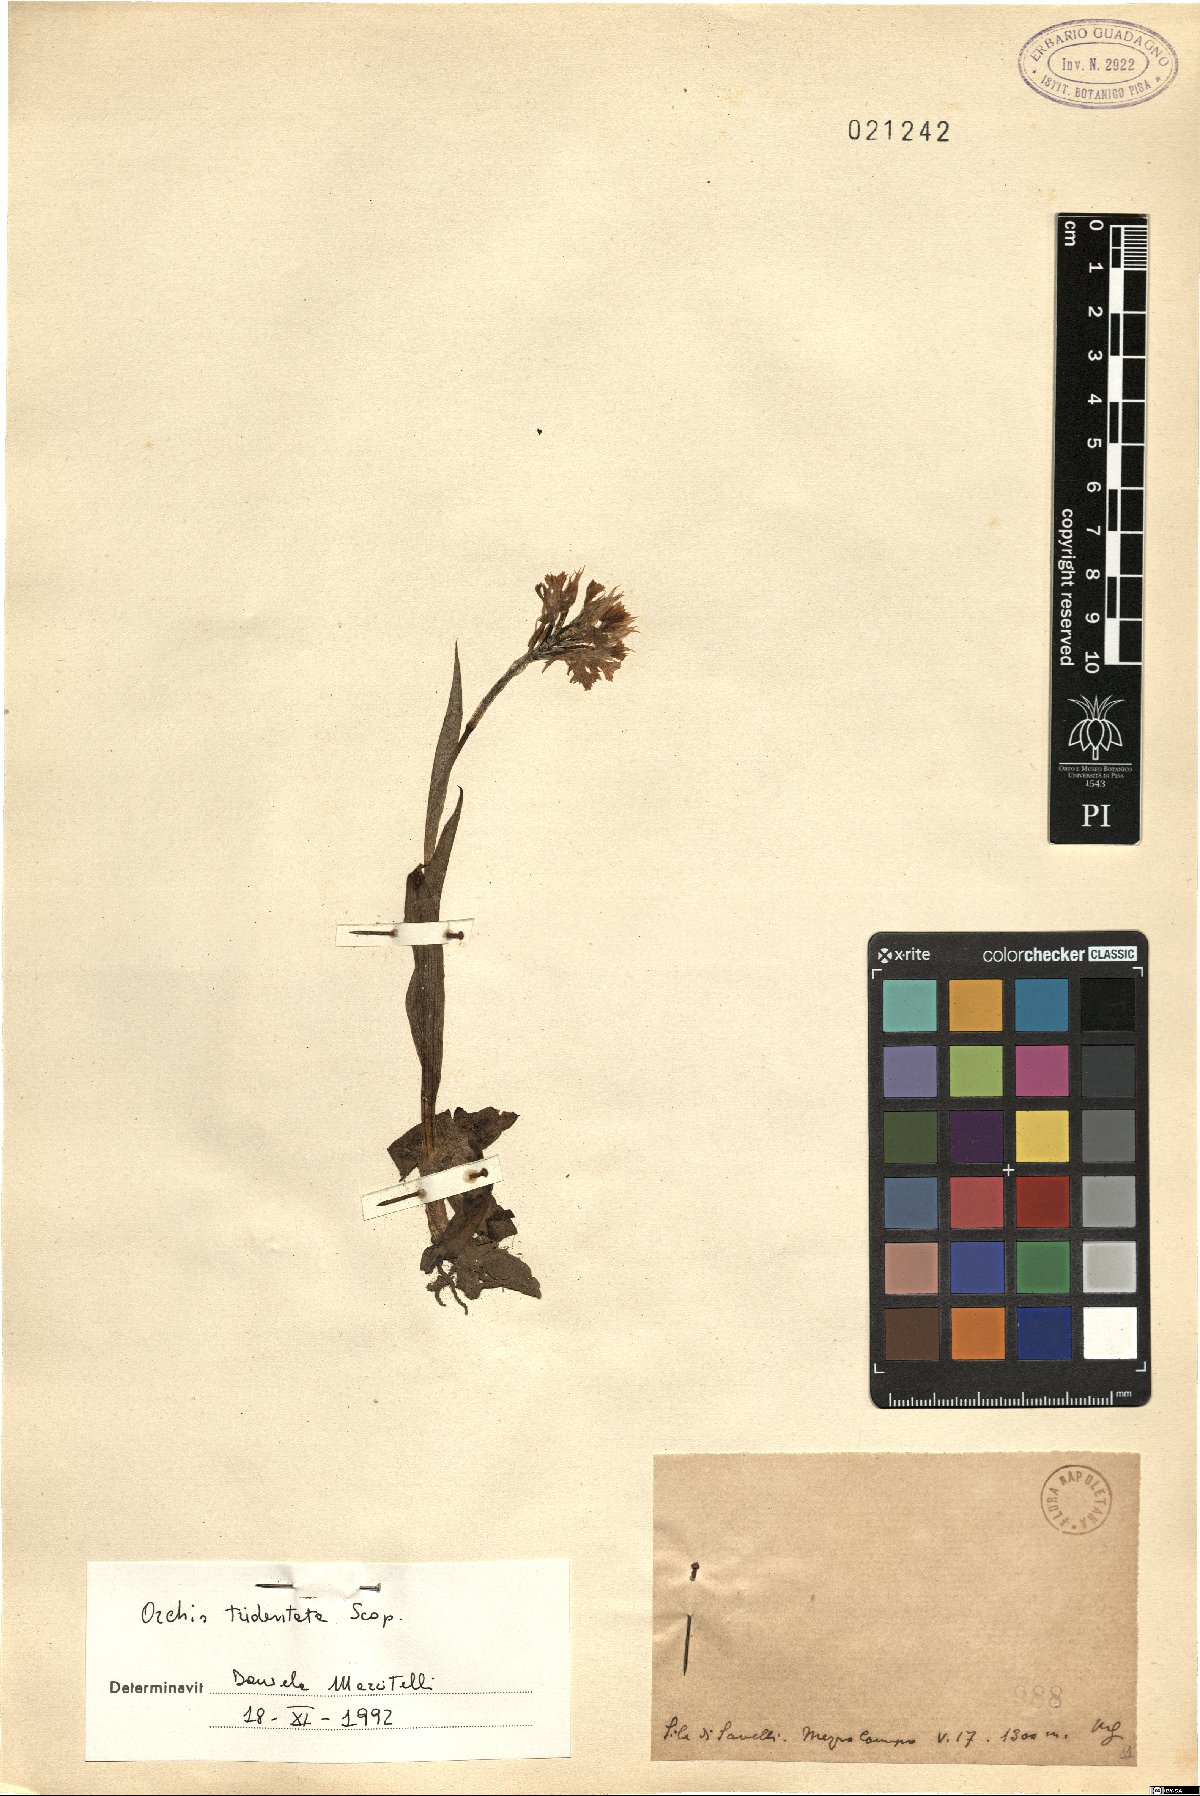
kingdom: Plantae
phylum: Tracheophyta
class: Liliopsida
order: Asparagales
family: Orchidaceae
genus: Neotinea
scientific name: Neotinea tridentata
